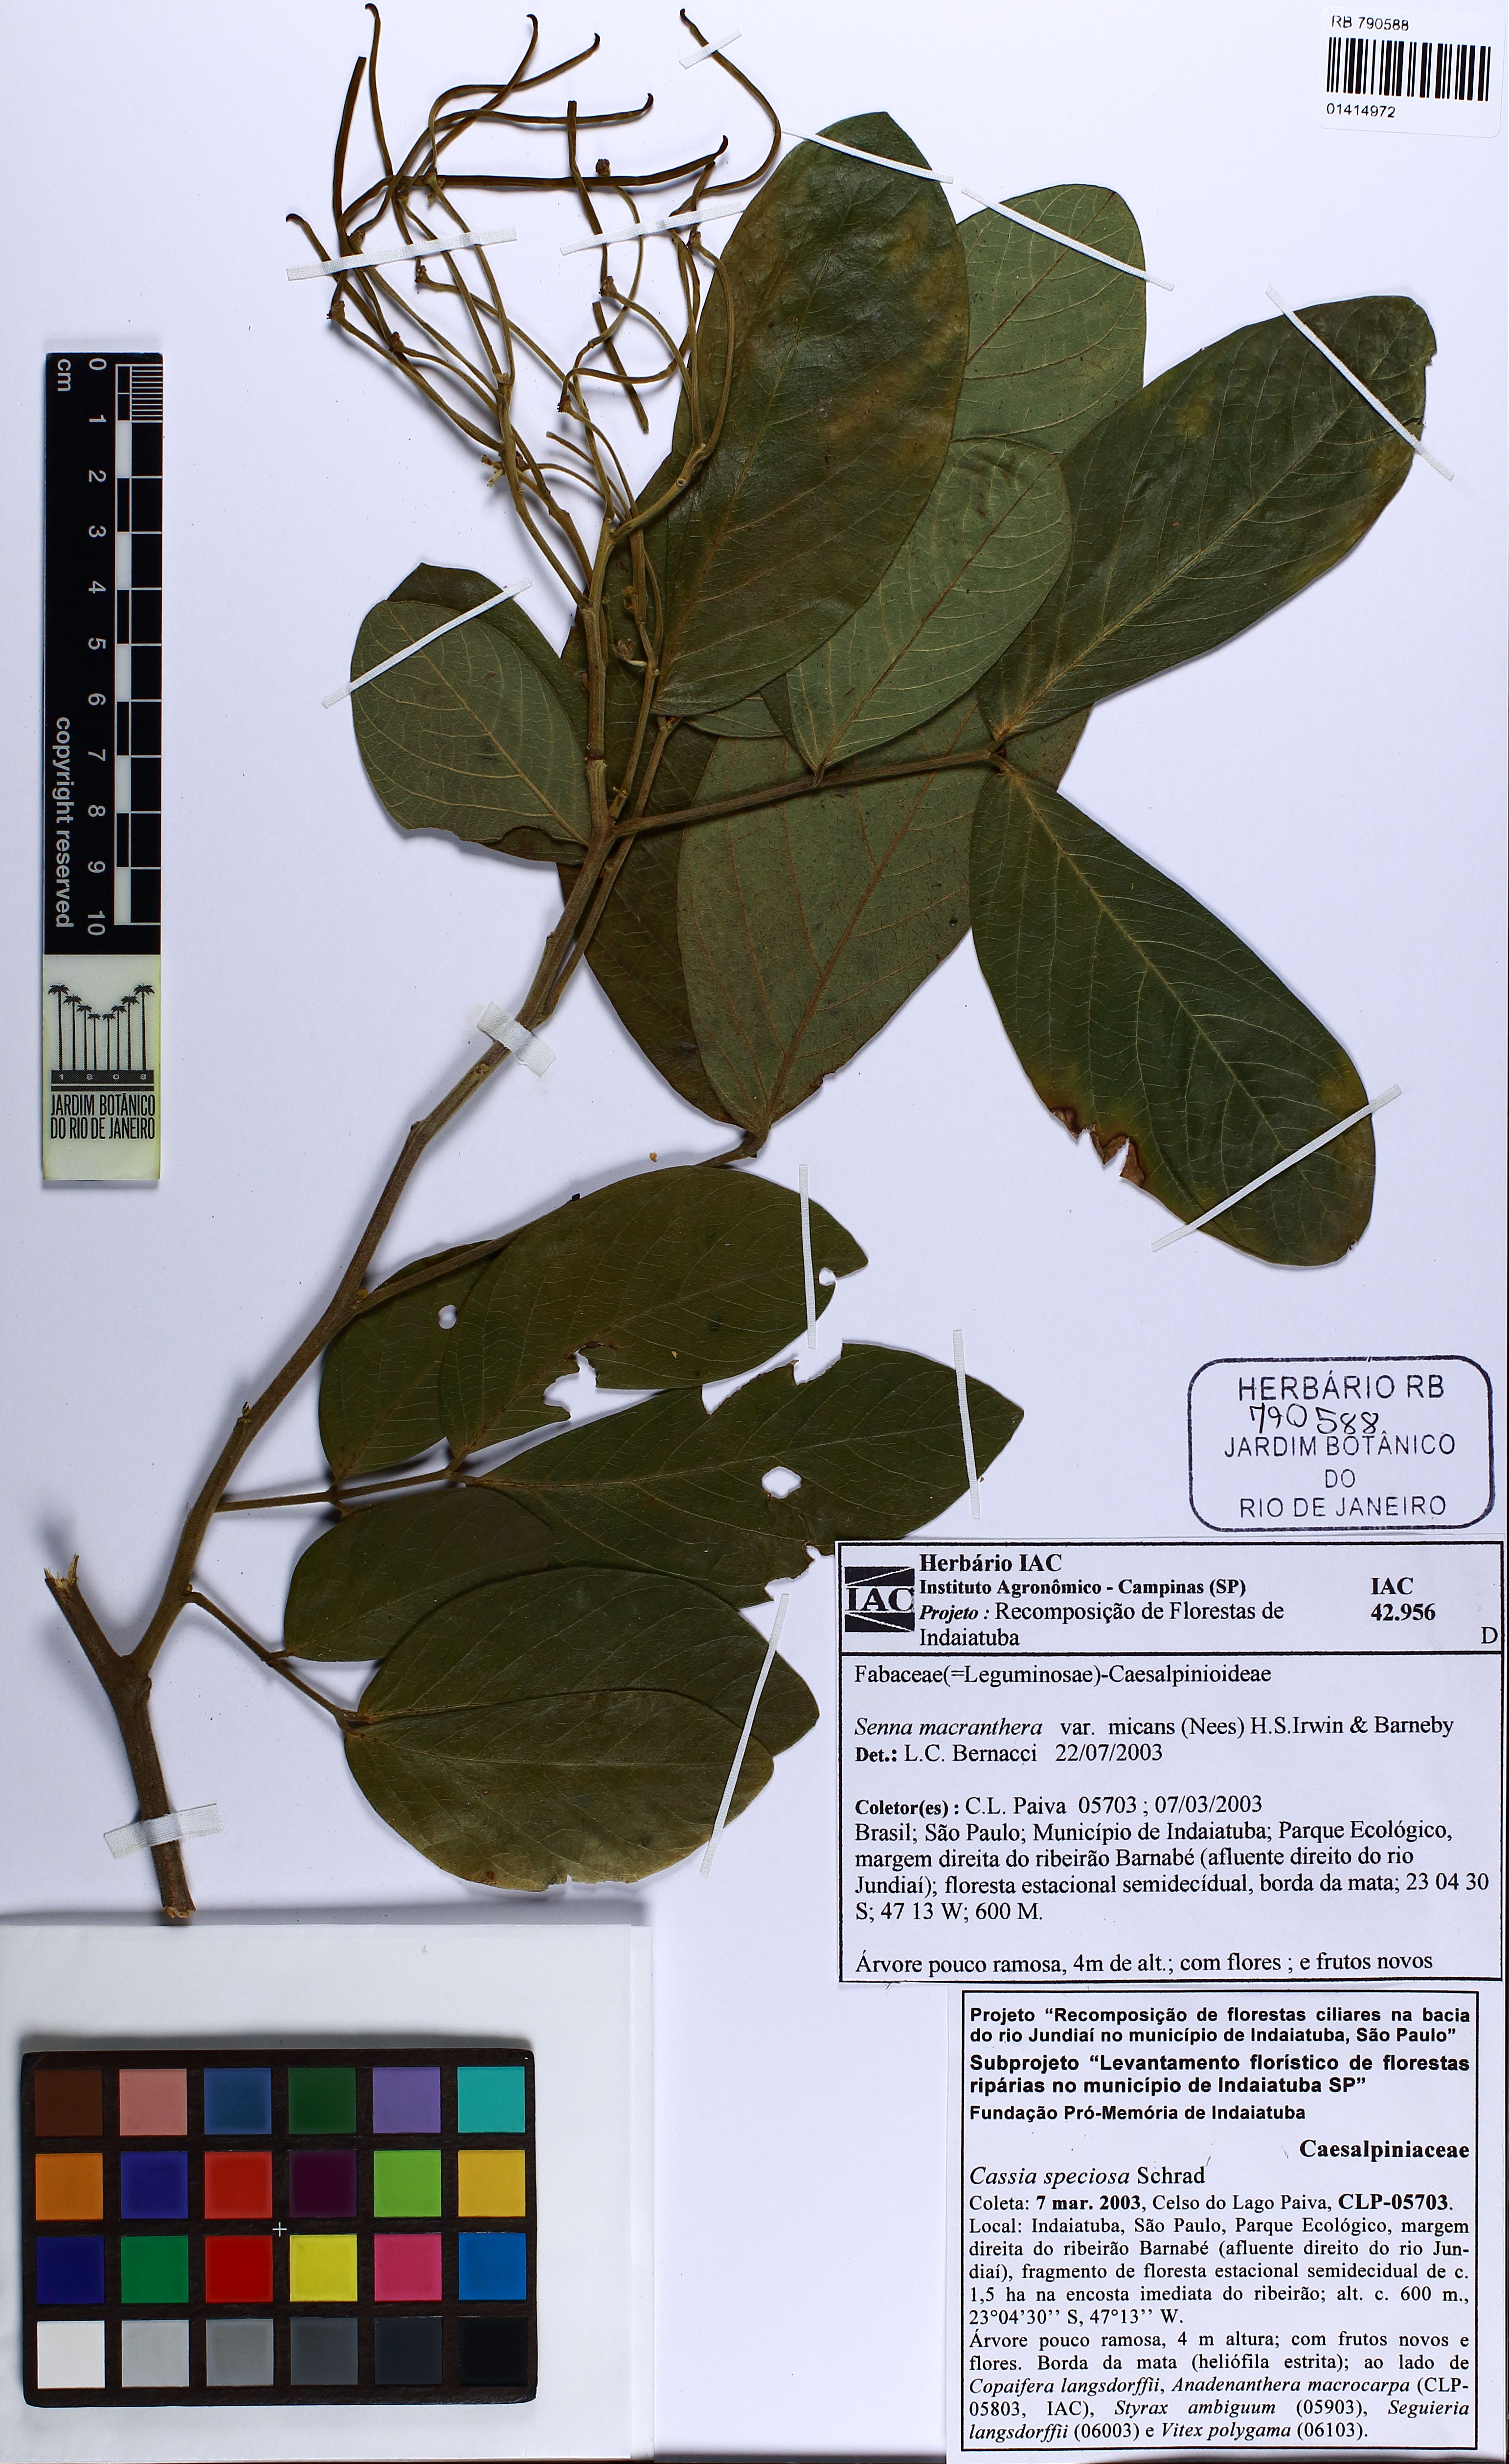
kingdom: Plantae
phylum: Tracheophyta
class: Magnoliopsida
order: Fabales
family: Fabaceae
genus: Senna
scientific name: Senna macranthera
